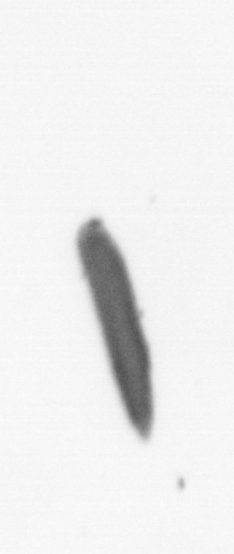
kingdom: Chromista
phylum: Ochrophyta
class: Bacillariophyceae
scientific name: Bacillariophyceae
